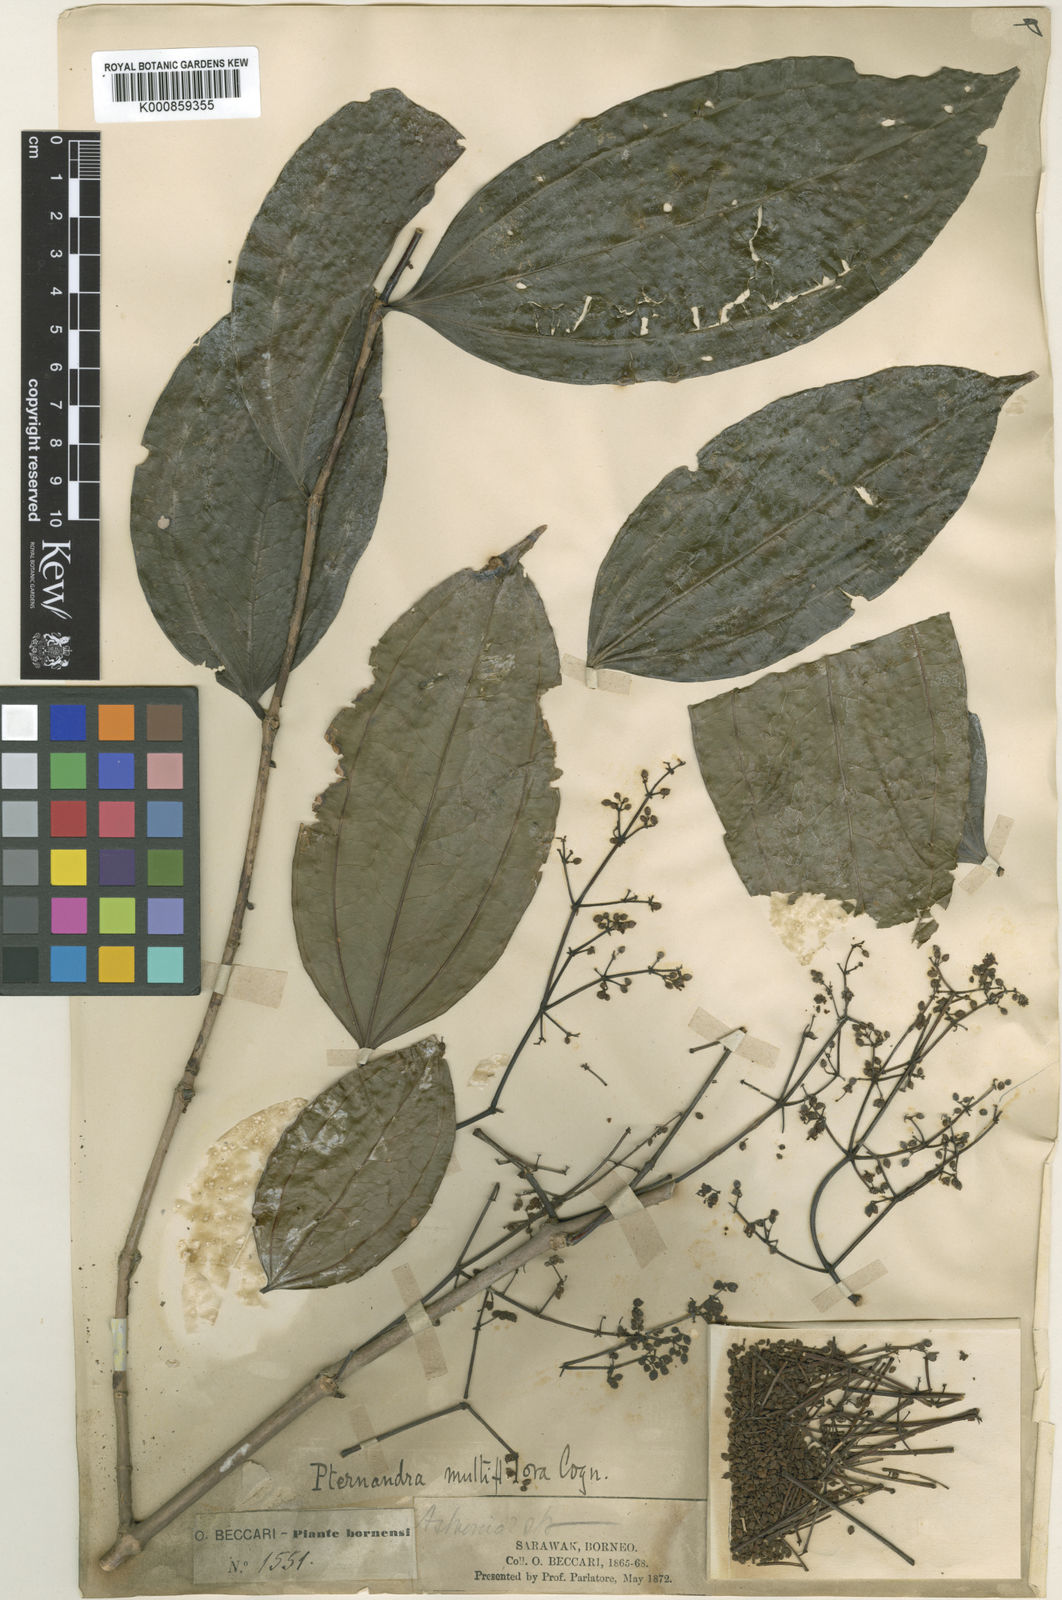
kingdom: Plantae
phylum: Tracheophyta
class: Magnoliopsida
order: Myrtales
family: Melastomataceae
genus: Pternandra
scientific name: Pternandra multiflora
